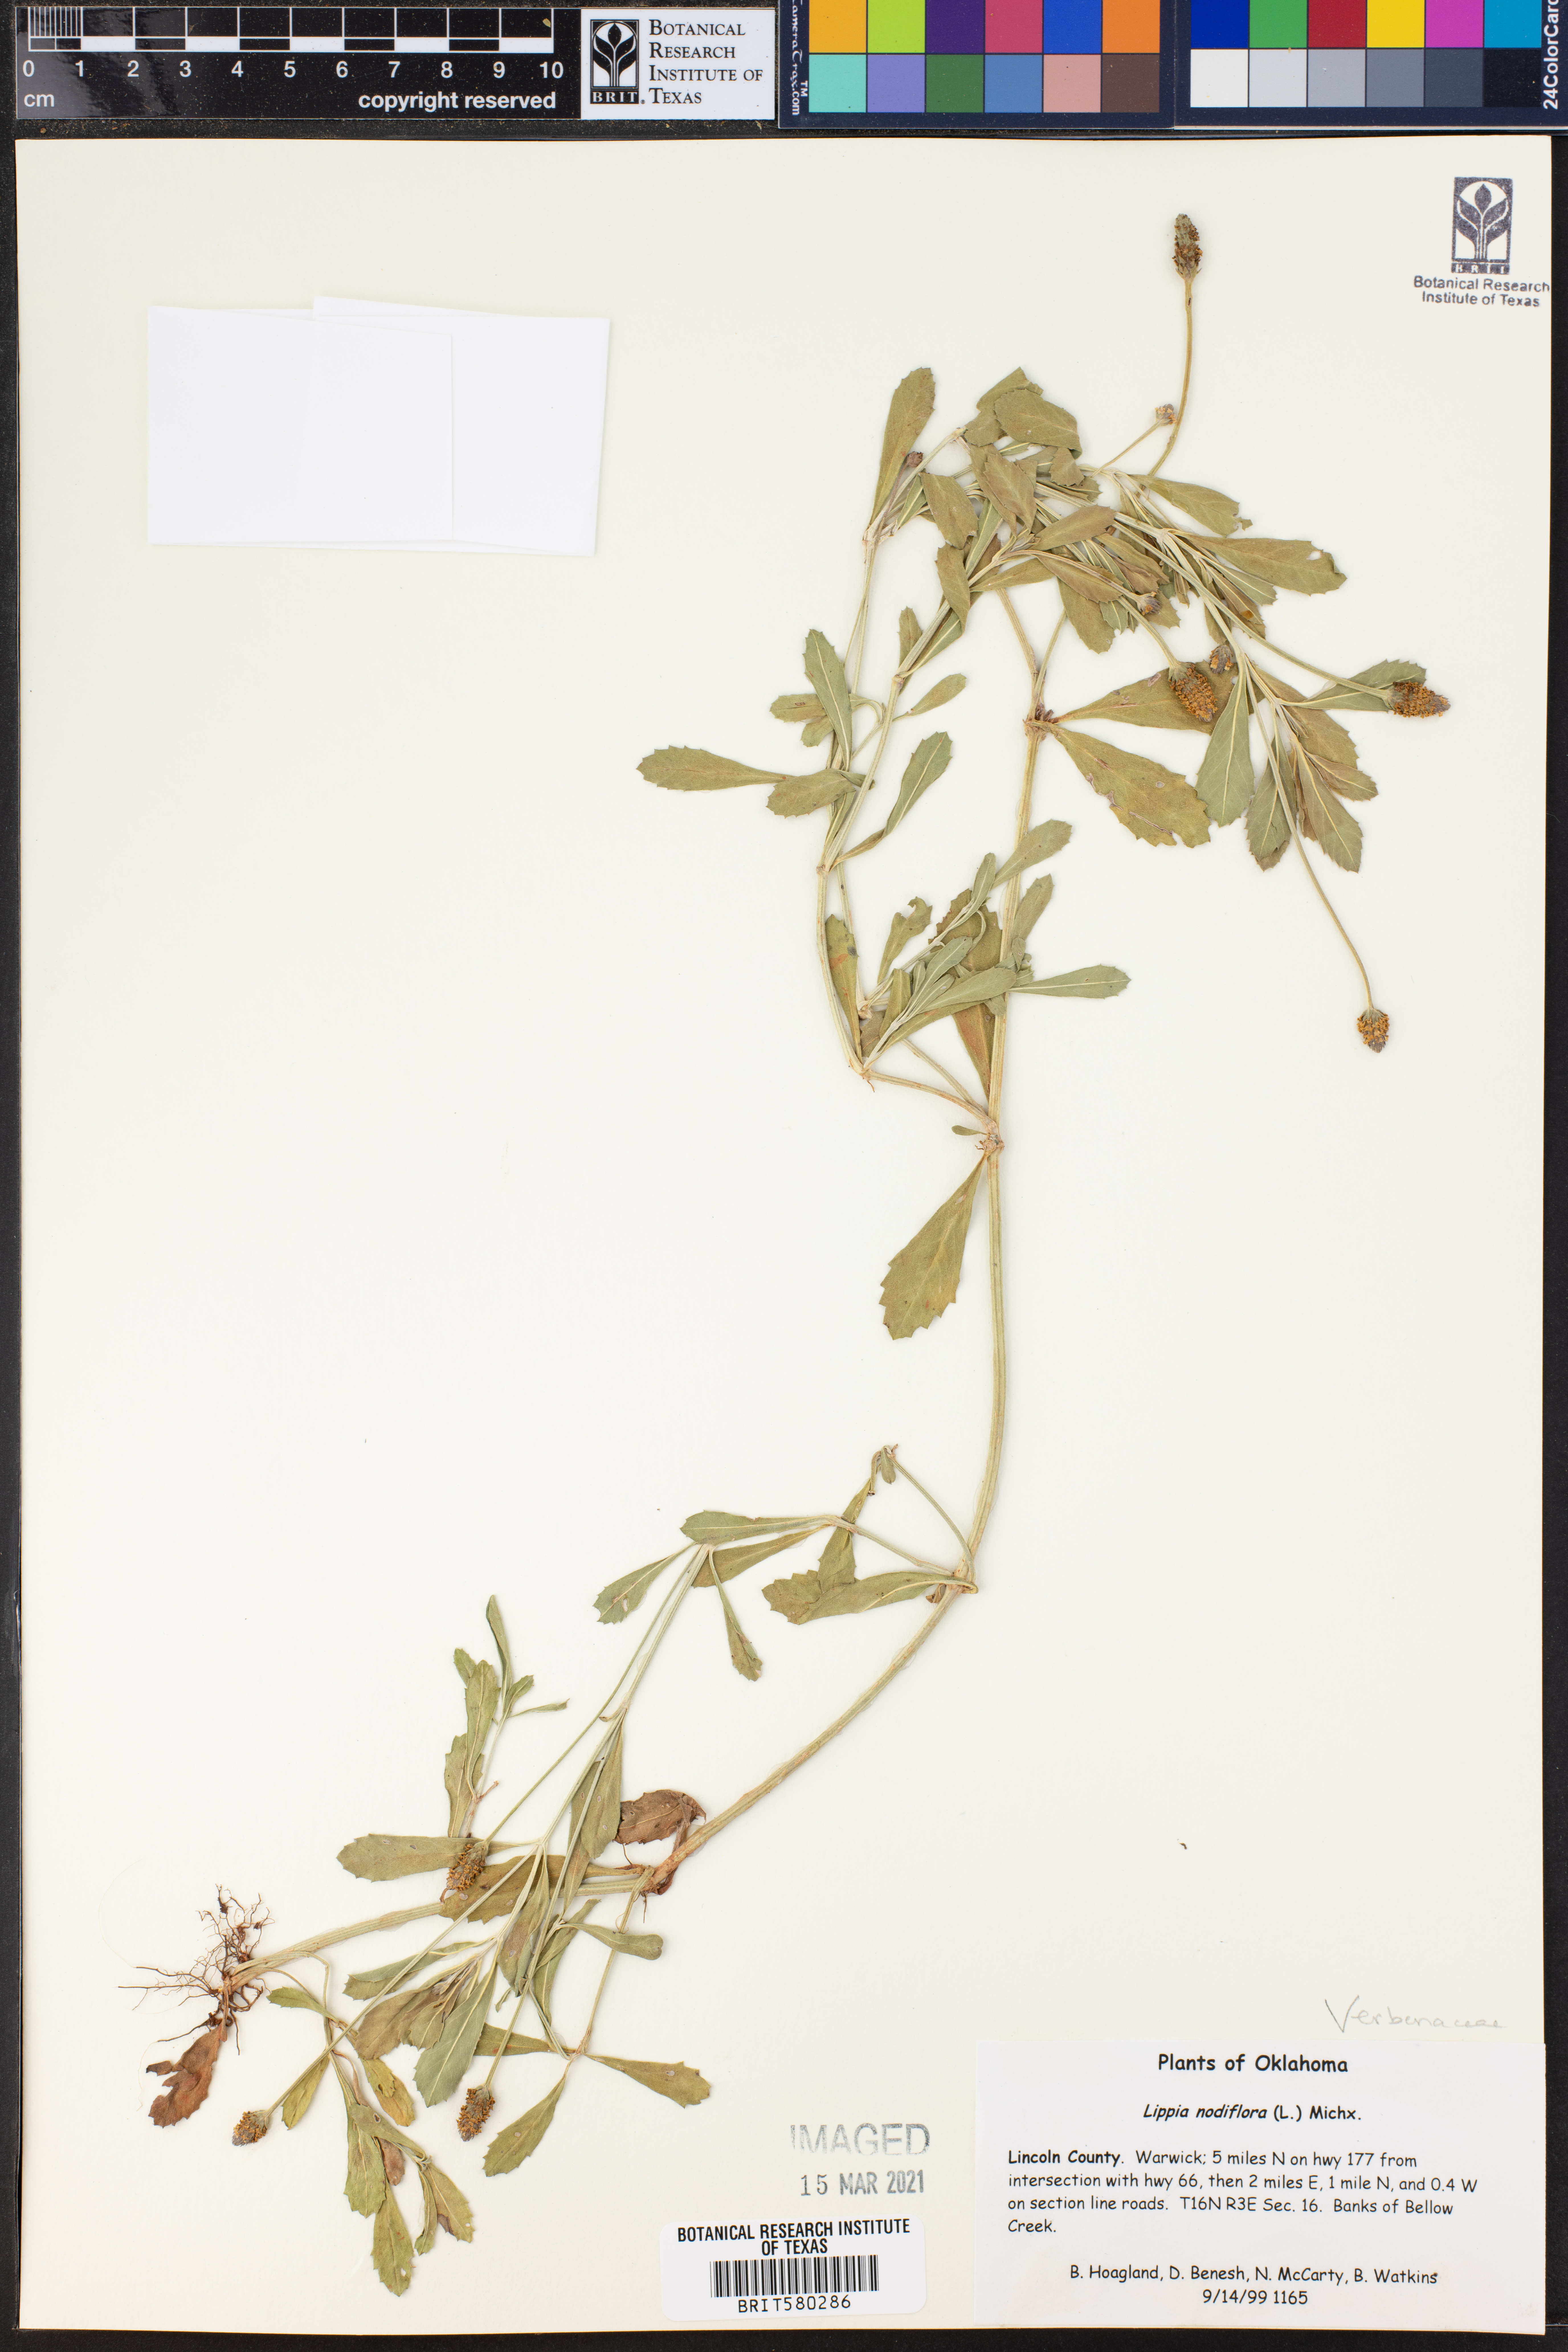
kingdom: Plantae
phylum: Tracheophyta
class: Magnoliopsida
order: Lamiales
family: Verbenaceae
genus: Phyla
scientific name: Phyla nodiflora
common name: Frogfruit
